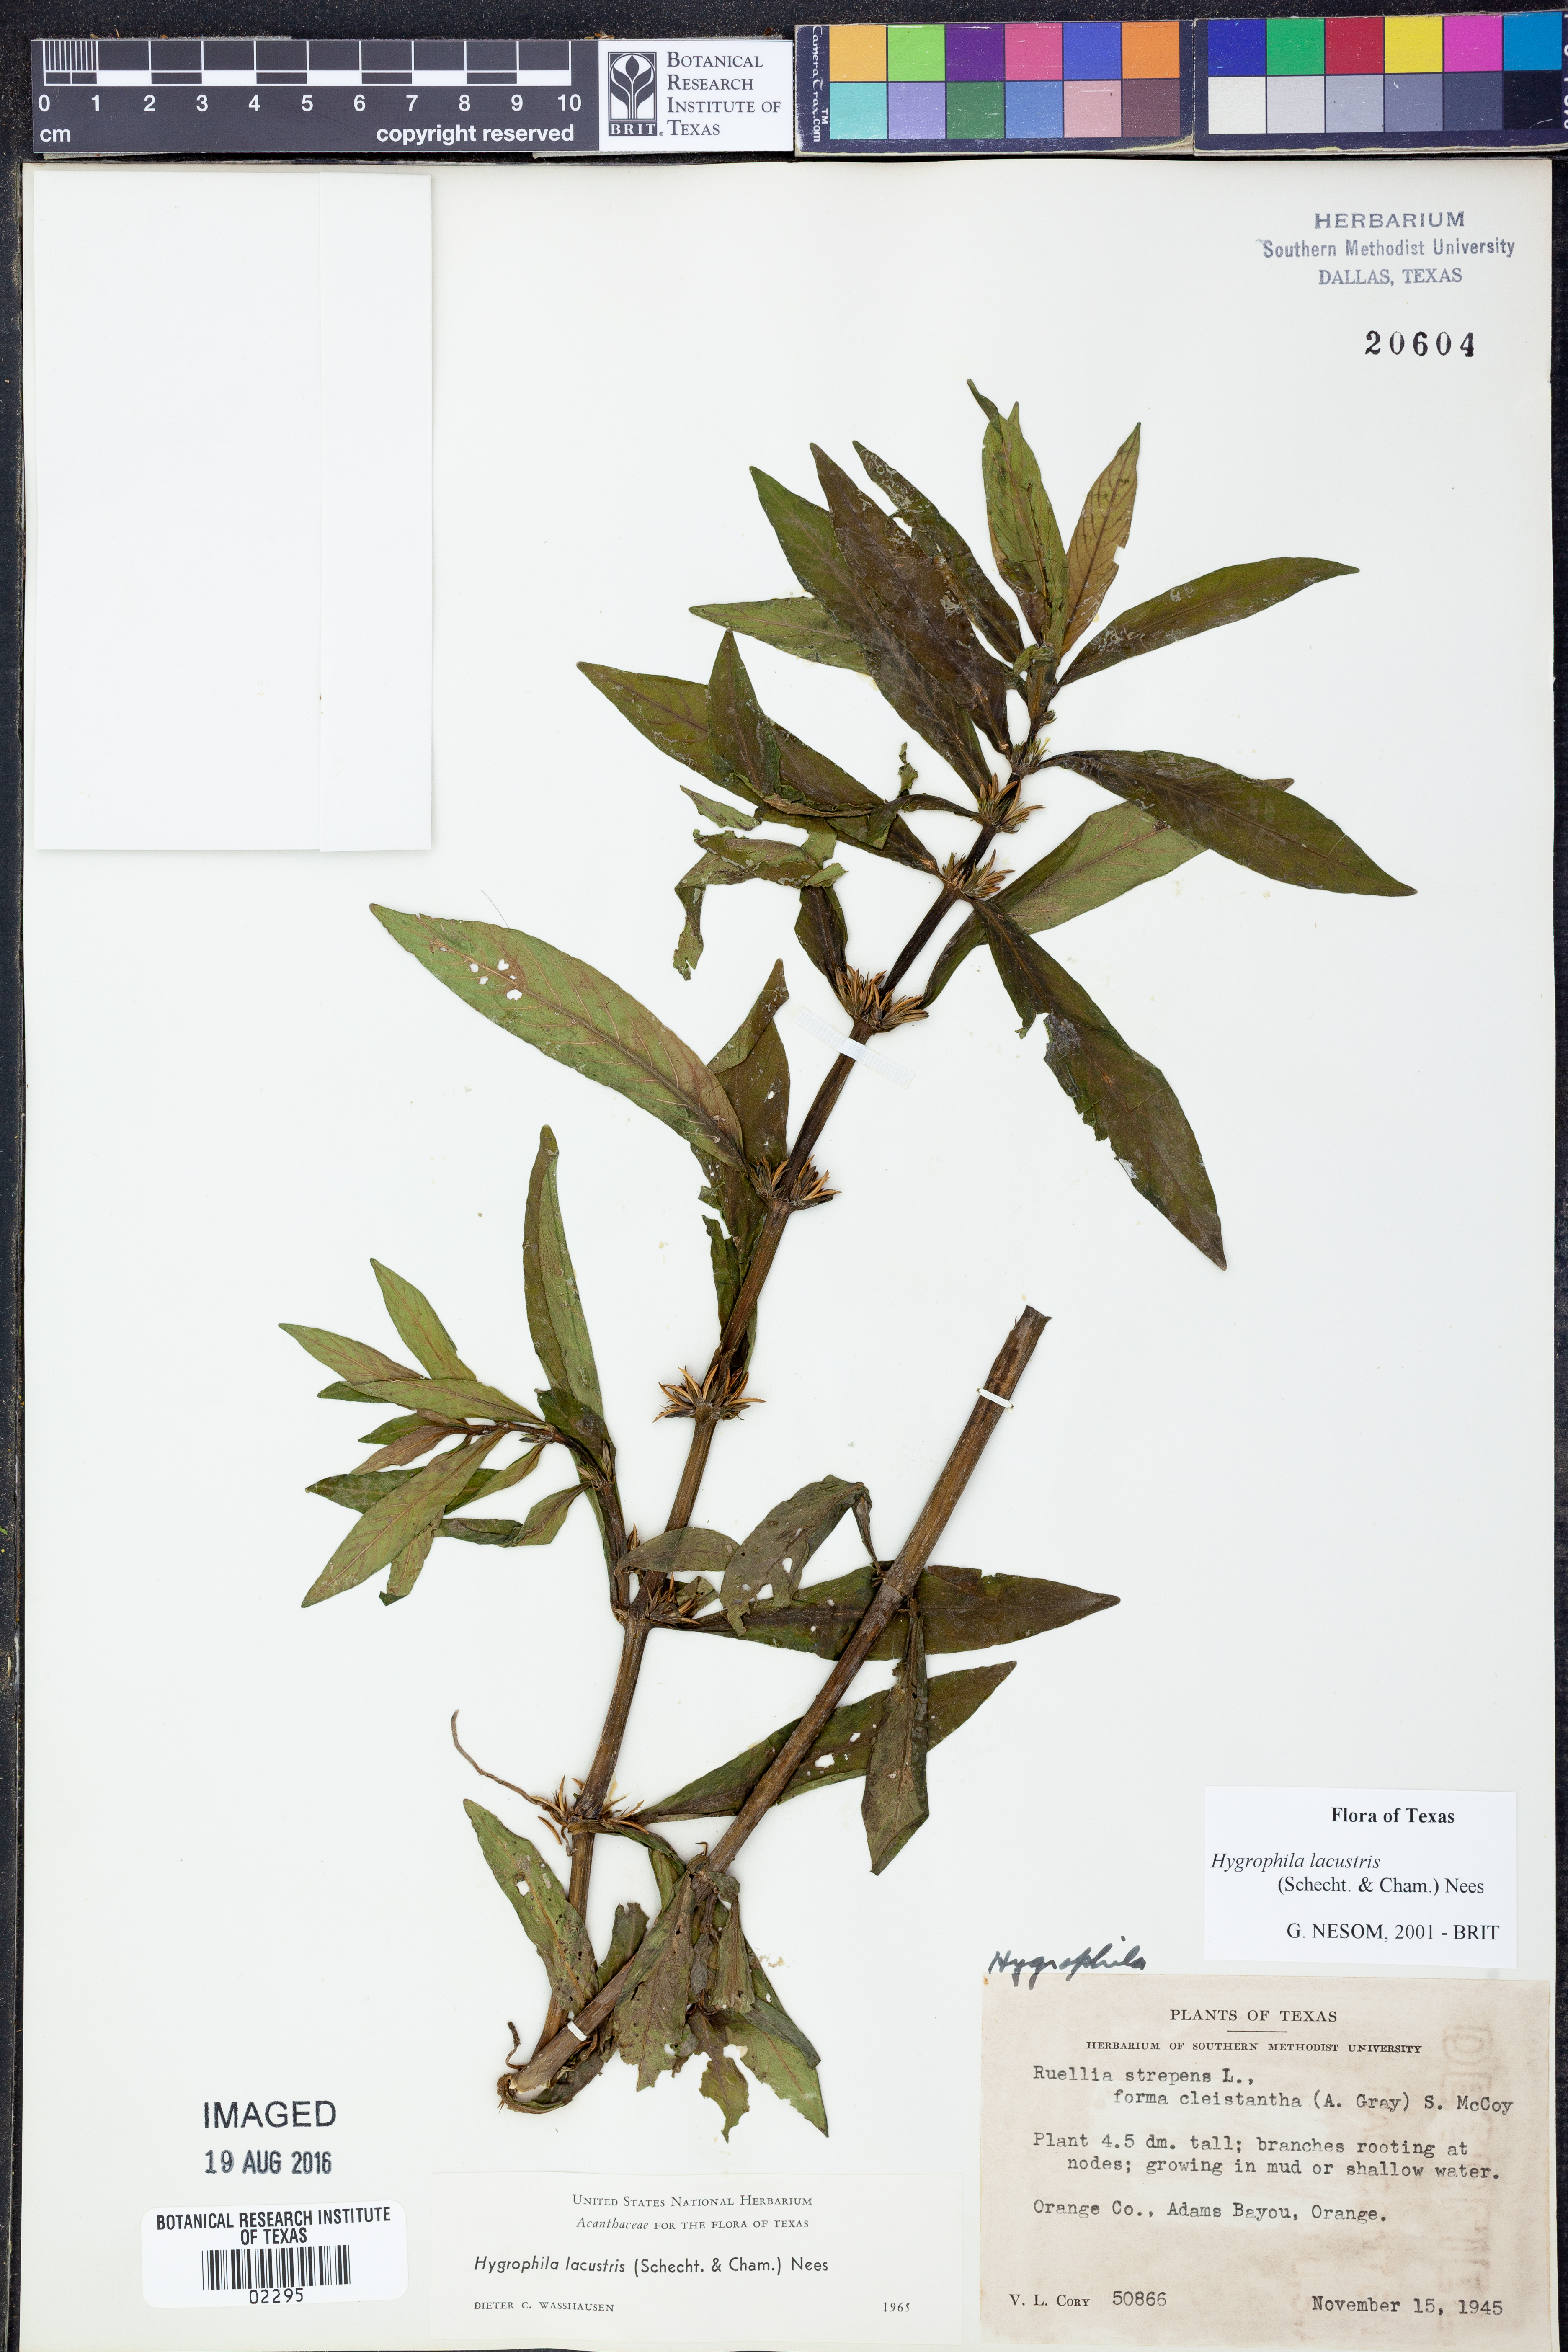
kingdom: Plantae
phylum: Tracheophyta
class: Magnoliopsida
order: Lamiales
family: Acanthaceae
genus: Hygrophila
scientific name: Hygrophila costata
